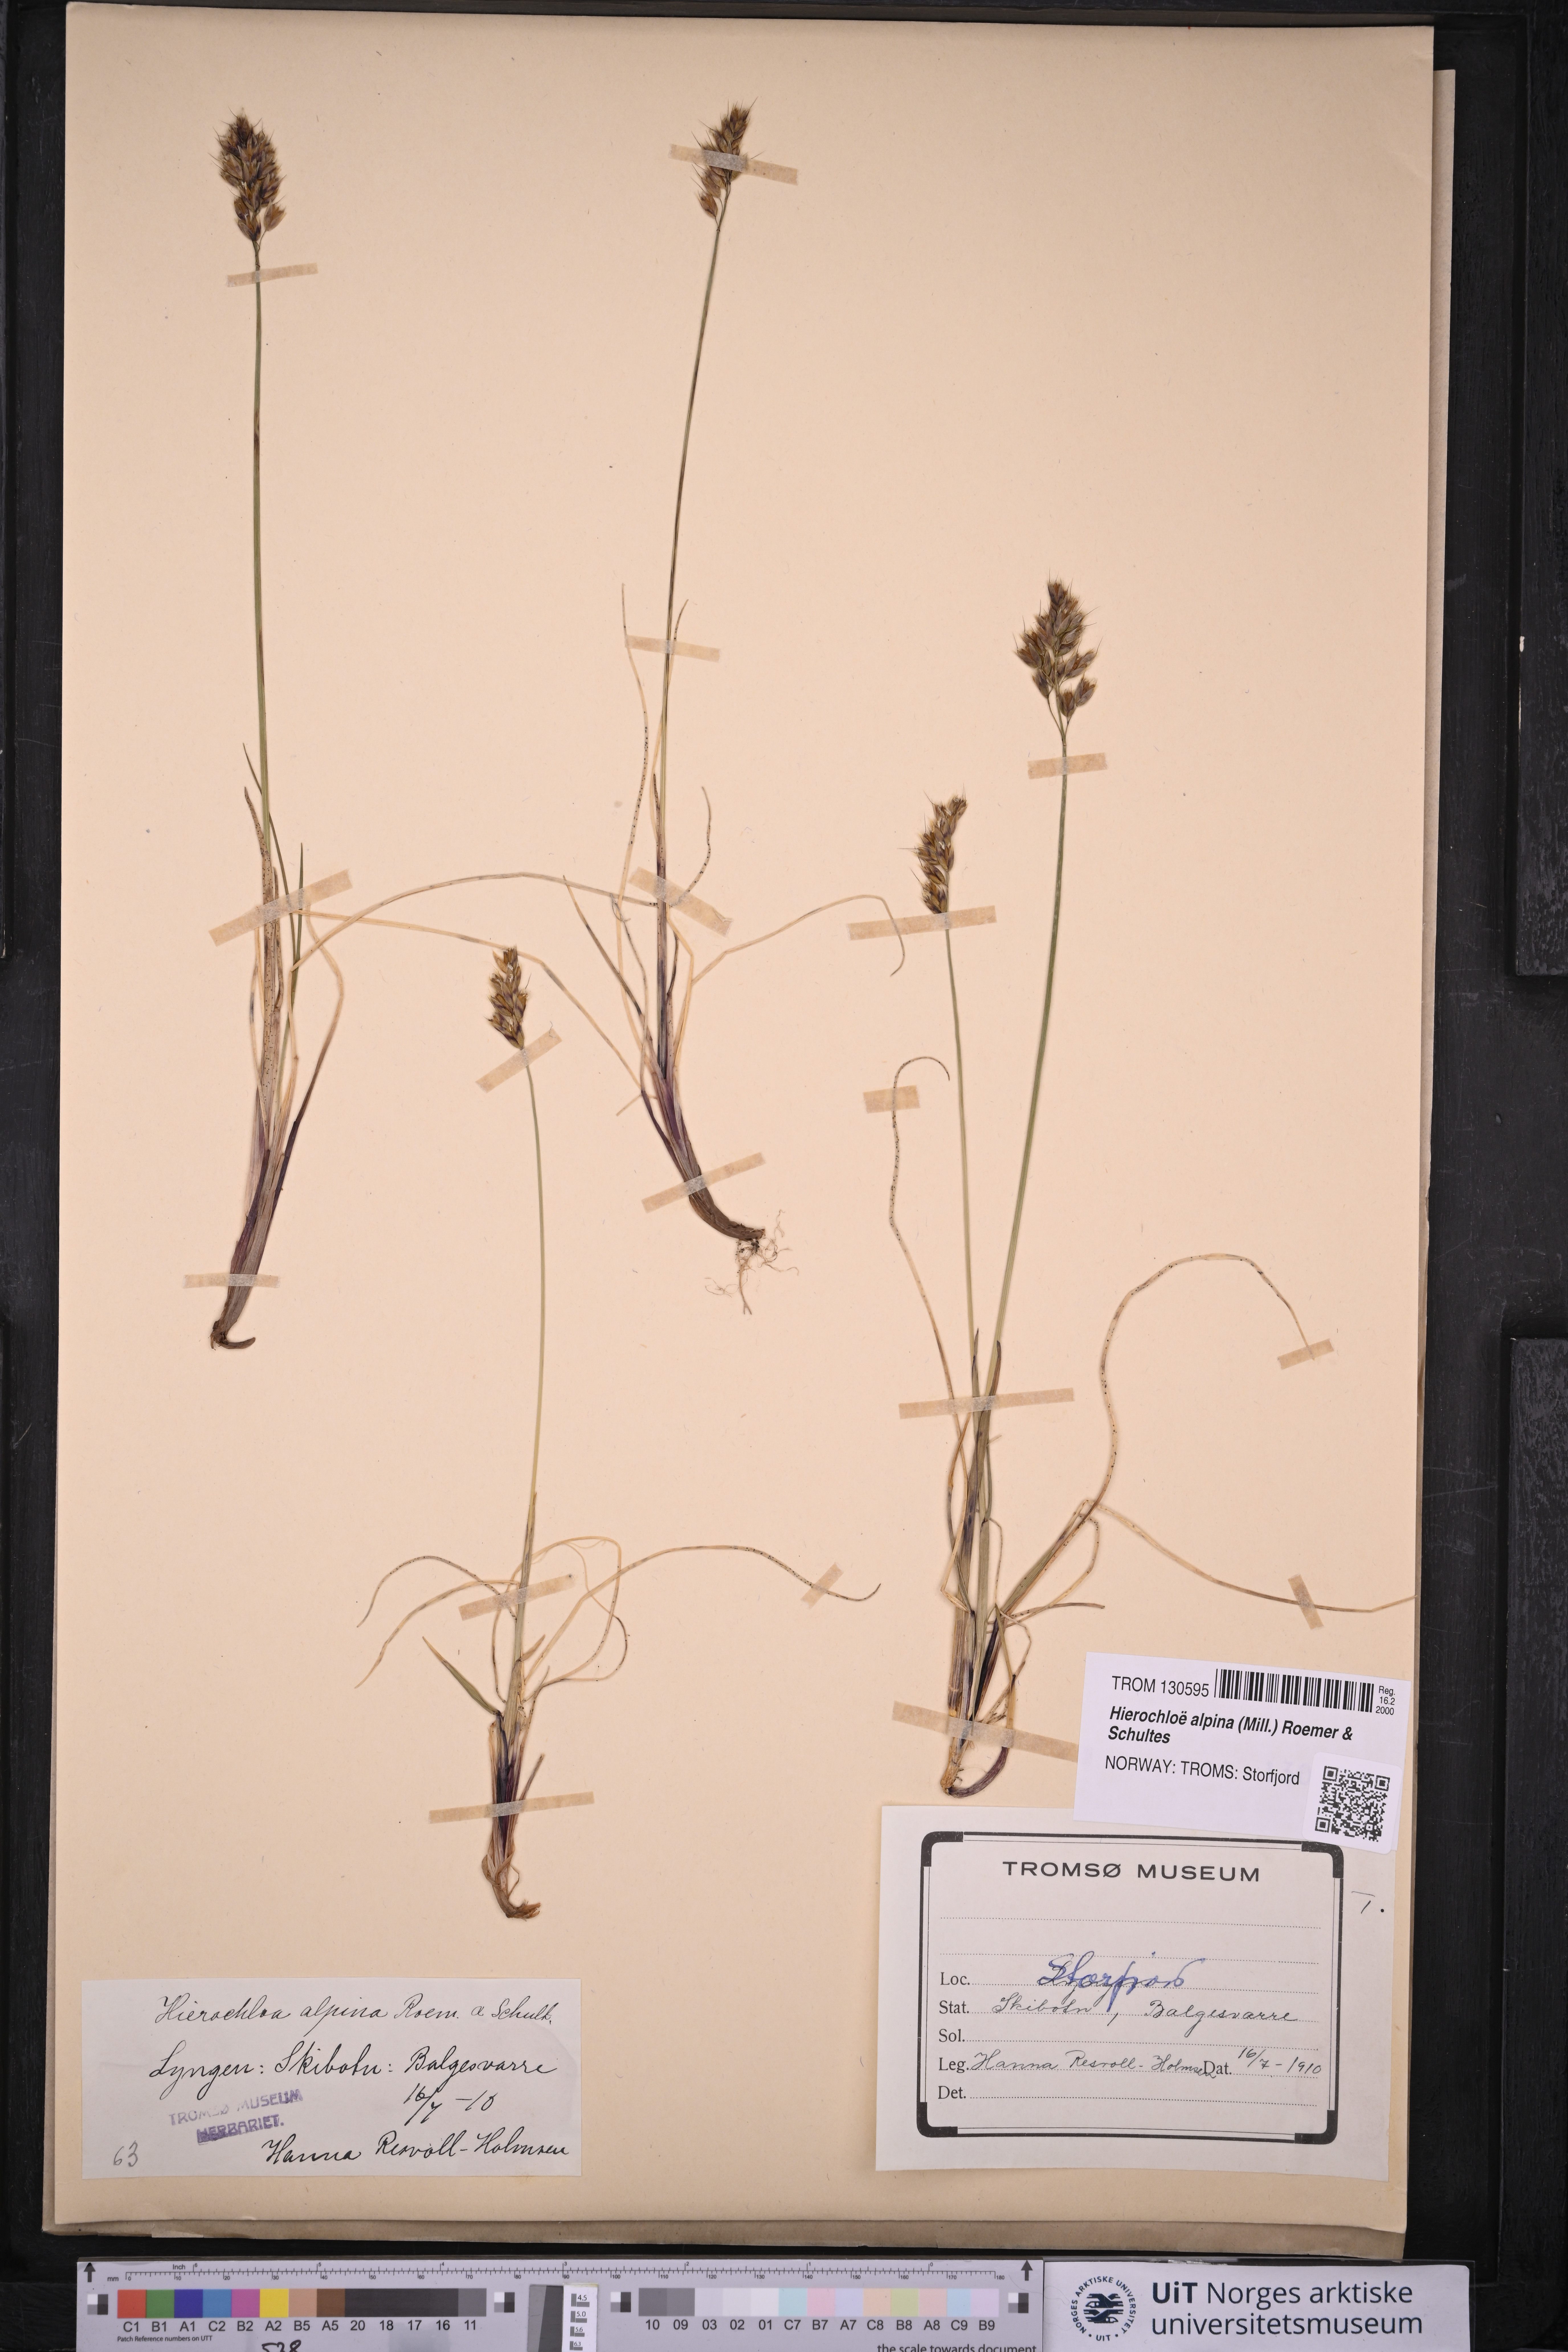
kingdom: Plantae
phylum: Tracheophyta
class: Liliopsida
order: Poales
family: Poaceae
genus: Anthoxanthum
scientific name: Anthoxanthum monticola
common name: Alpine sweetgrass
